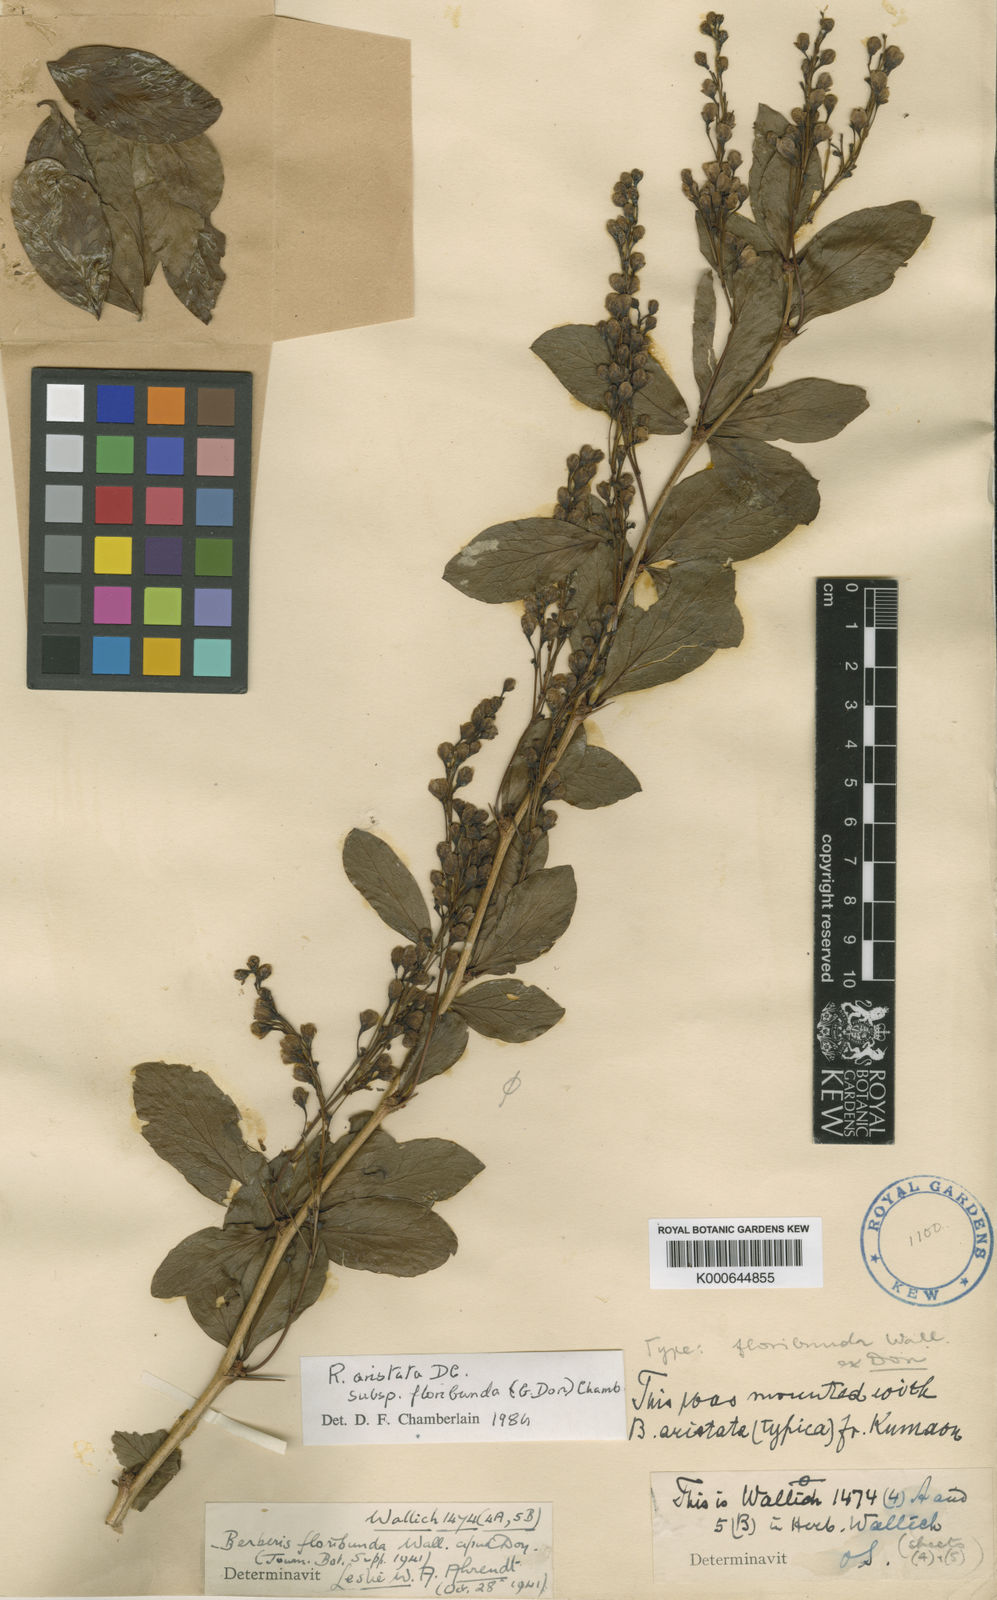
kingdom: Plantae
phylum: Tracheophyta
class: Magnoliopsida
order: Ranunculales
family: Berberidaceae
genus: Berberis
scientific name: Berberis floribunda
